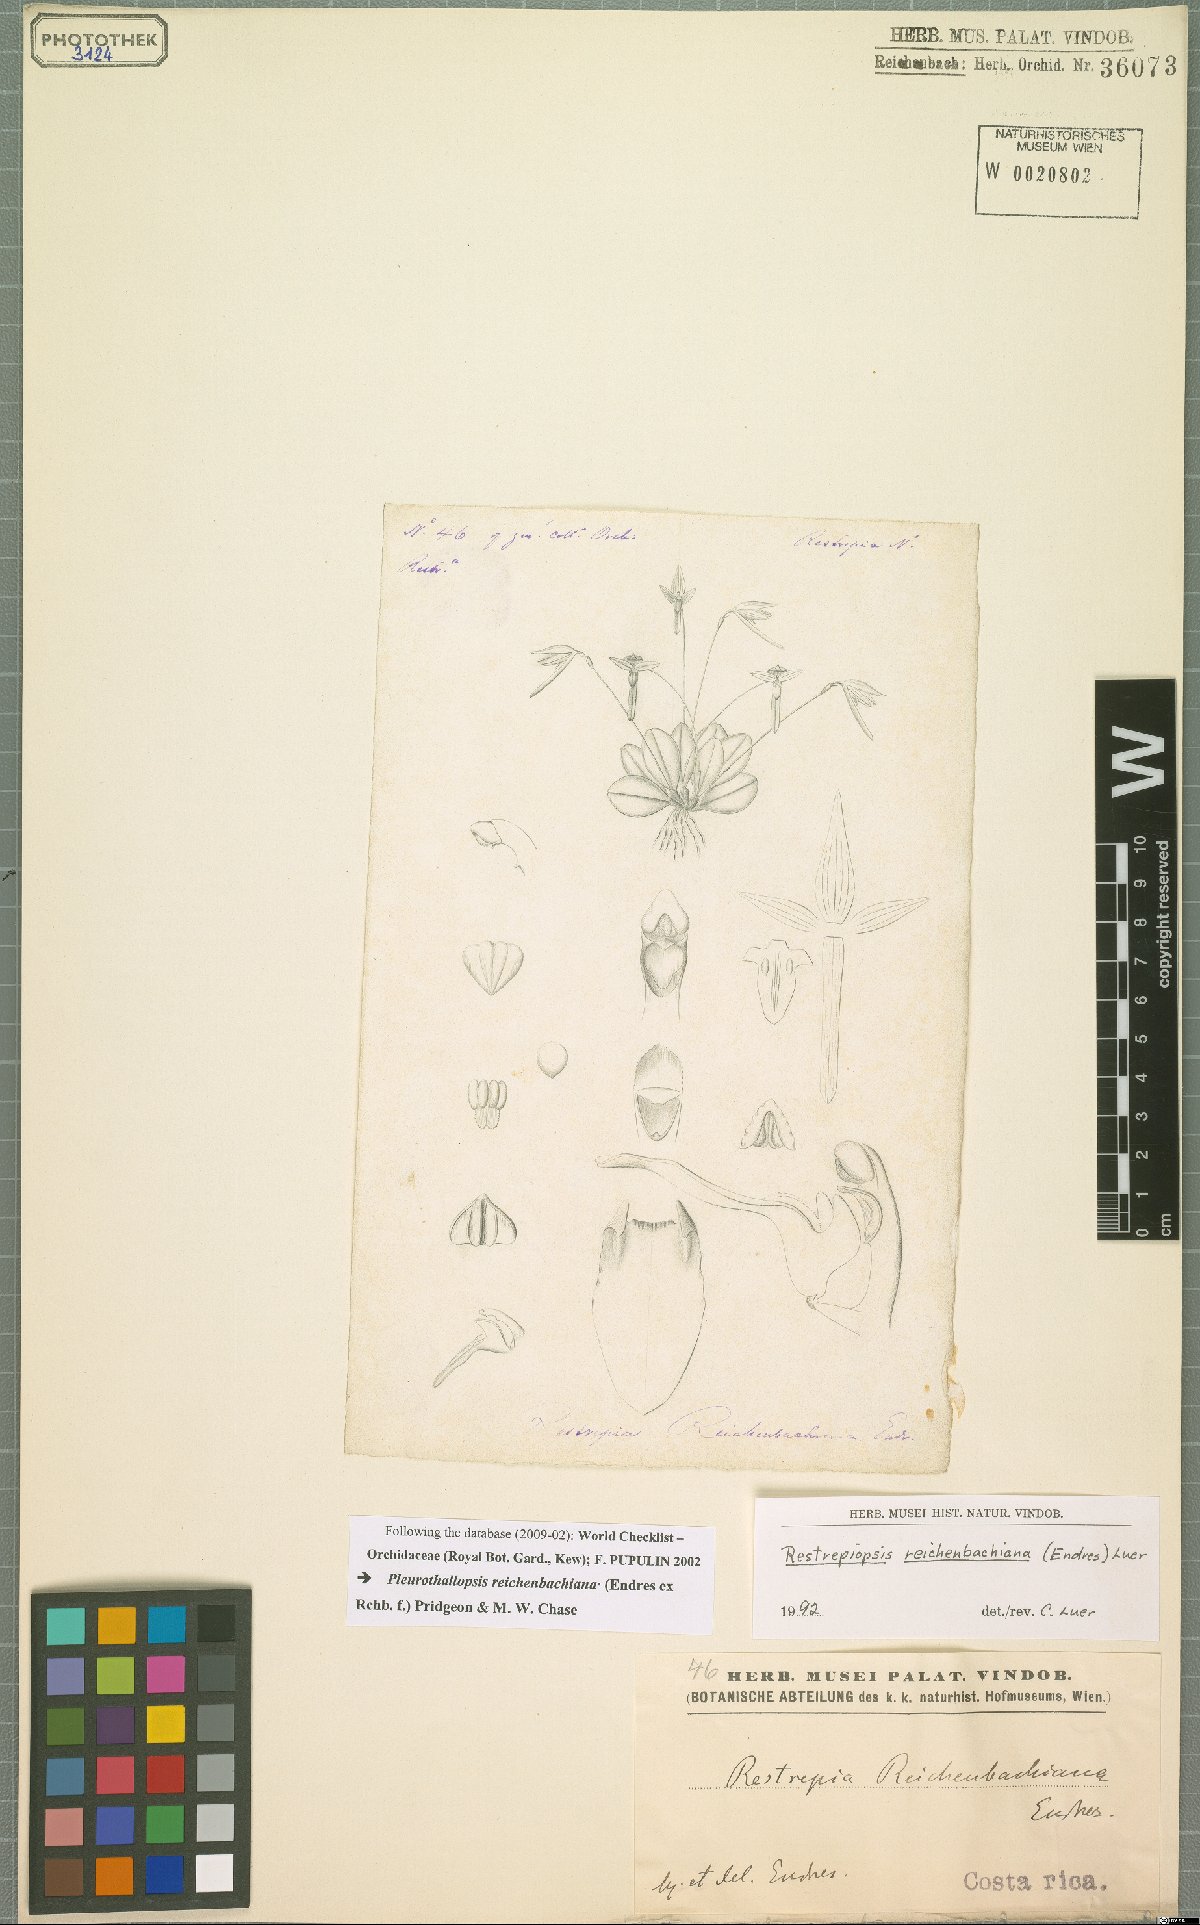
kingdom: Plantae
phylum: Tracheophyta
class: Liliopsida
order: Asparagales
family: Orchidaceae
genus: Pleurothallopsis
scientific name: Pleurothallopsis reichenbachiana
